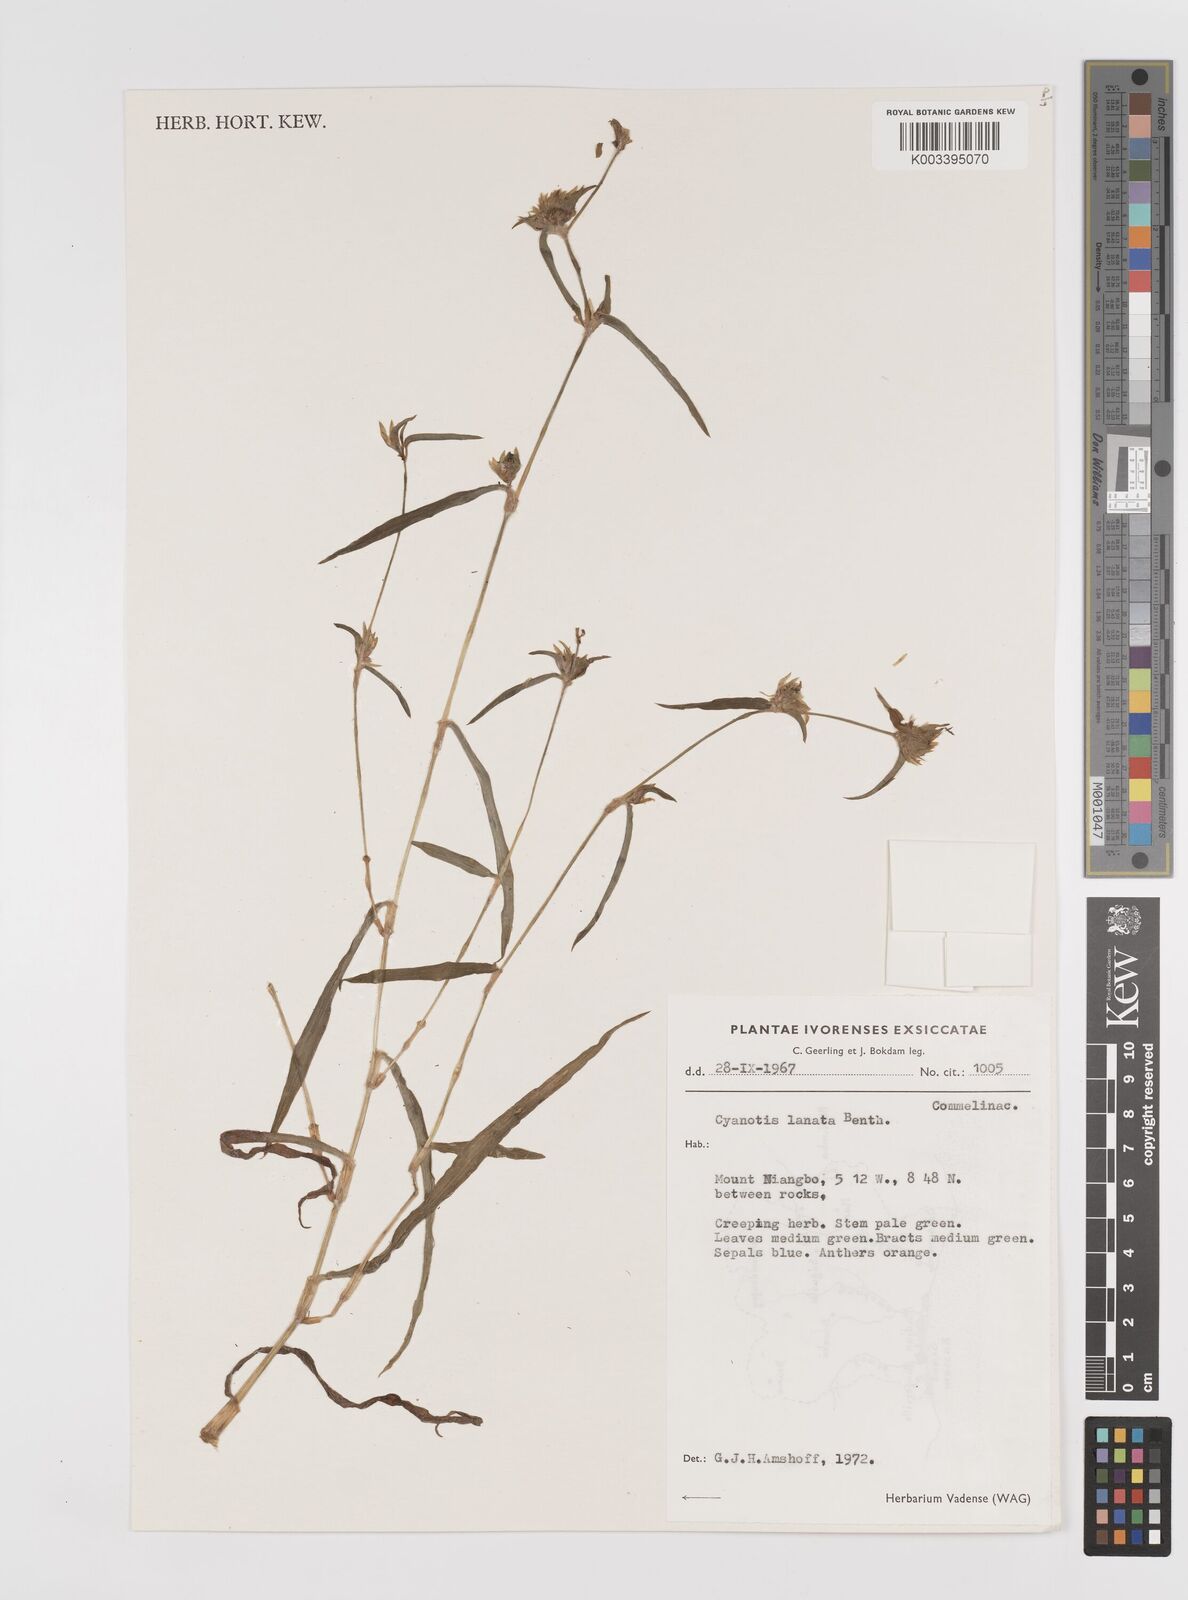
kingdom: Plantae
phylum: Tracheophyta
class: Liliopsida
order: Commelinales
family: Commelinaceae
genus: Cyanotis
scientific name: Cyanotis lanata
